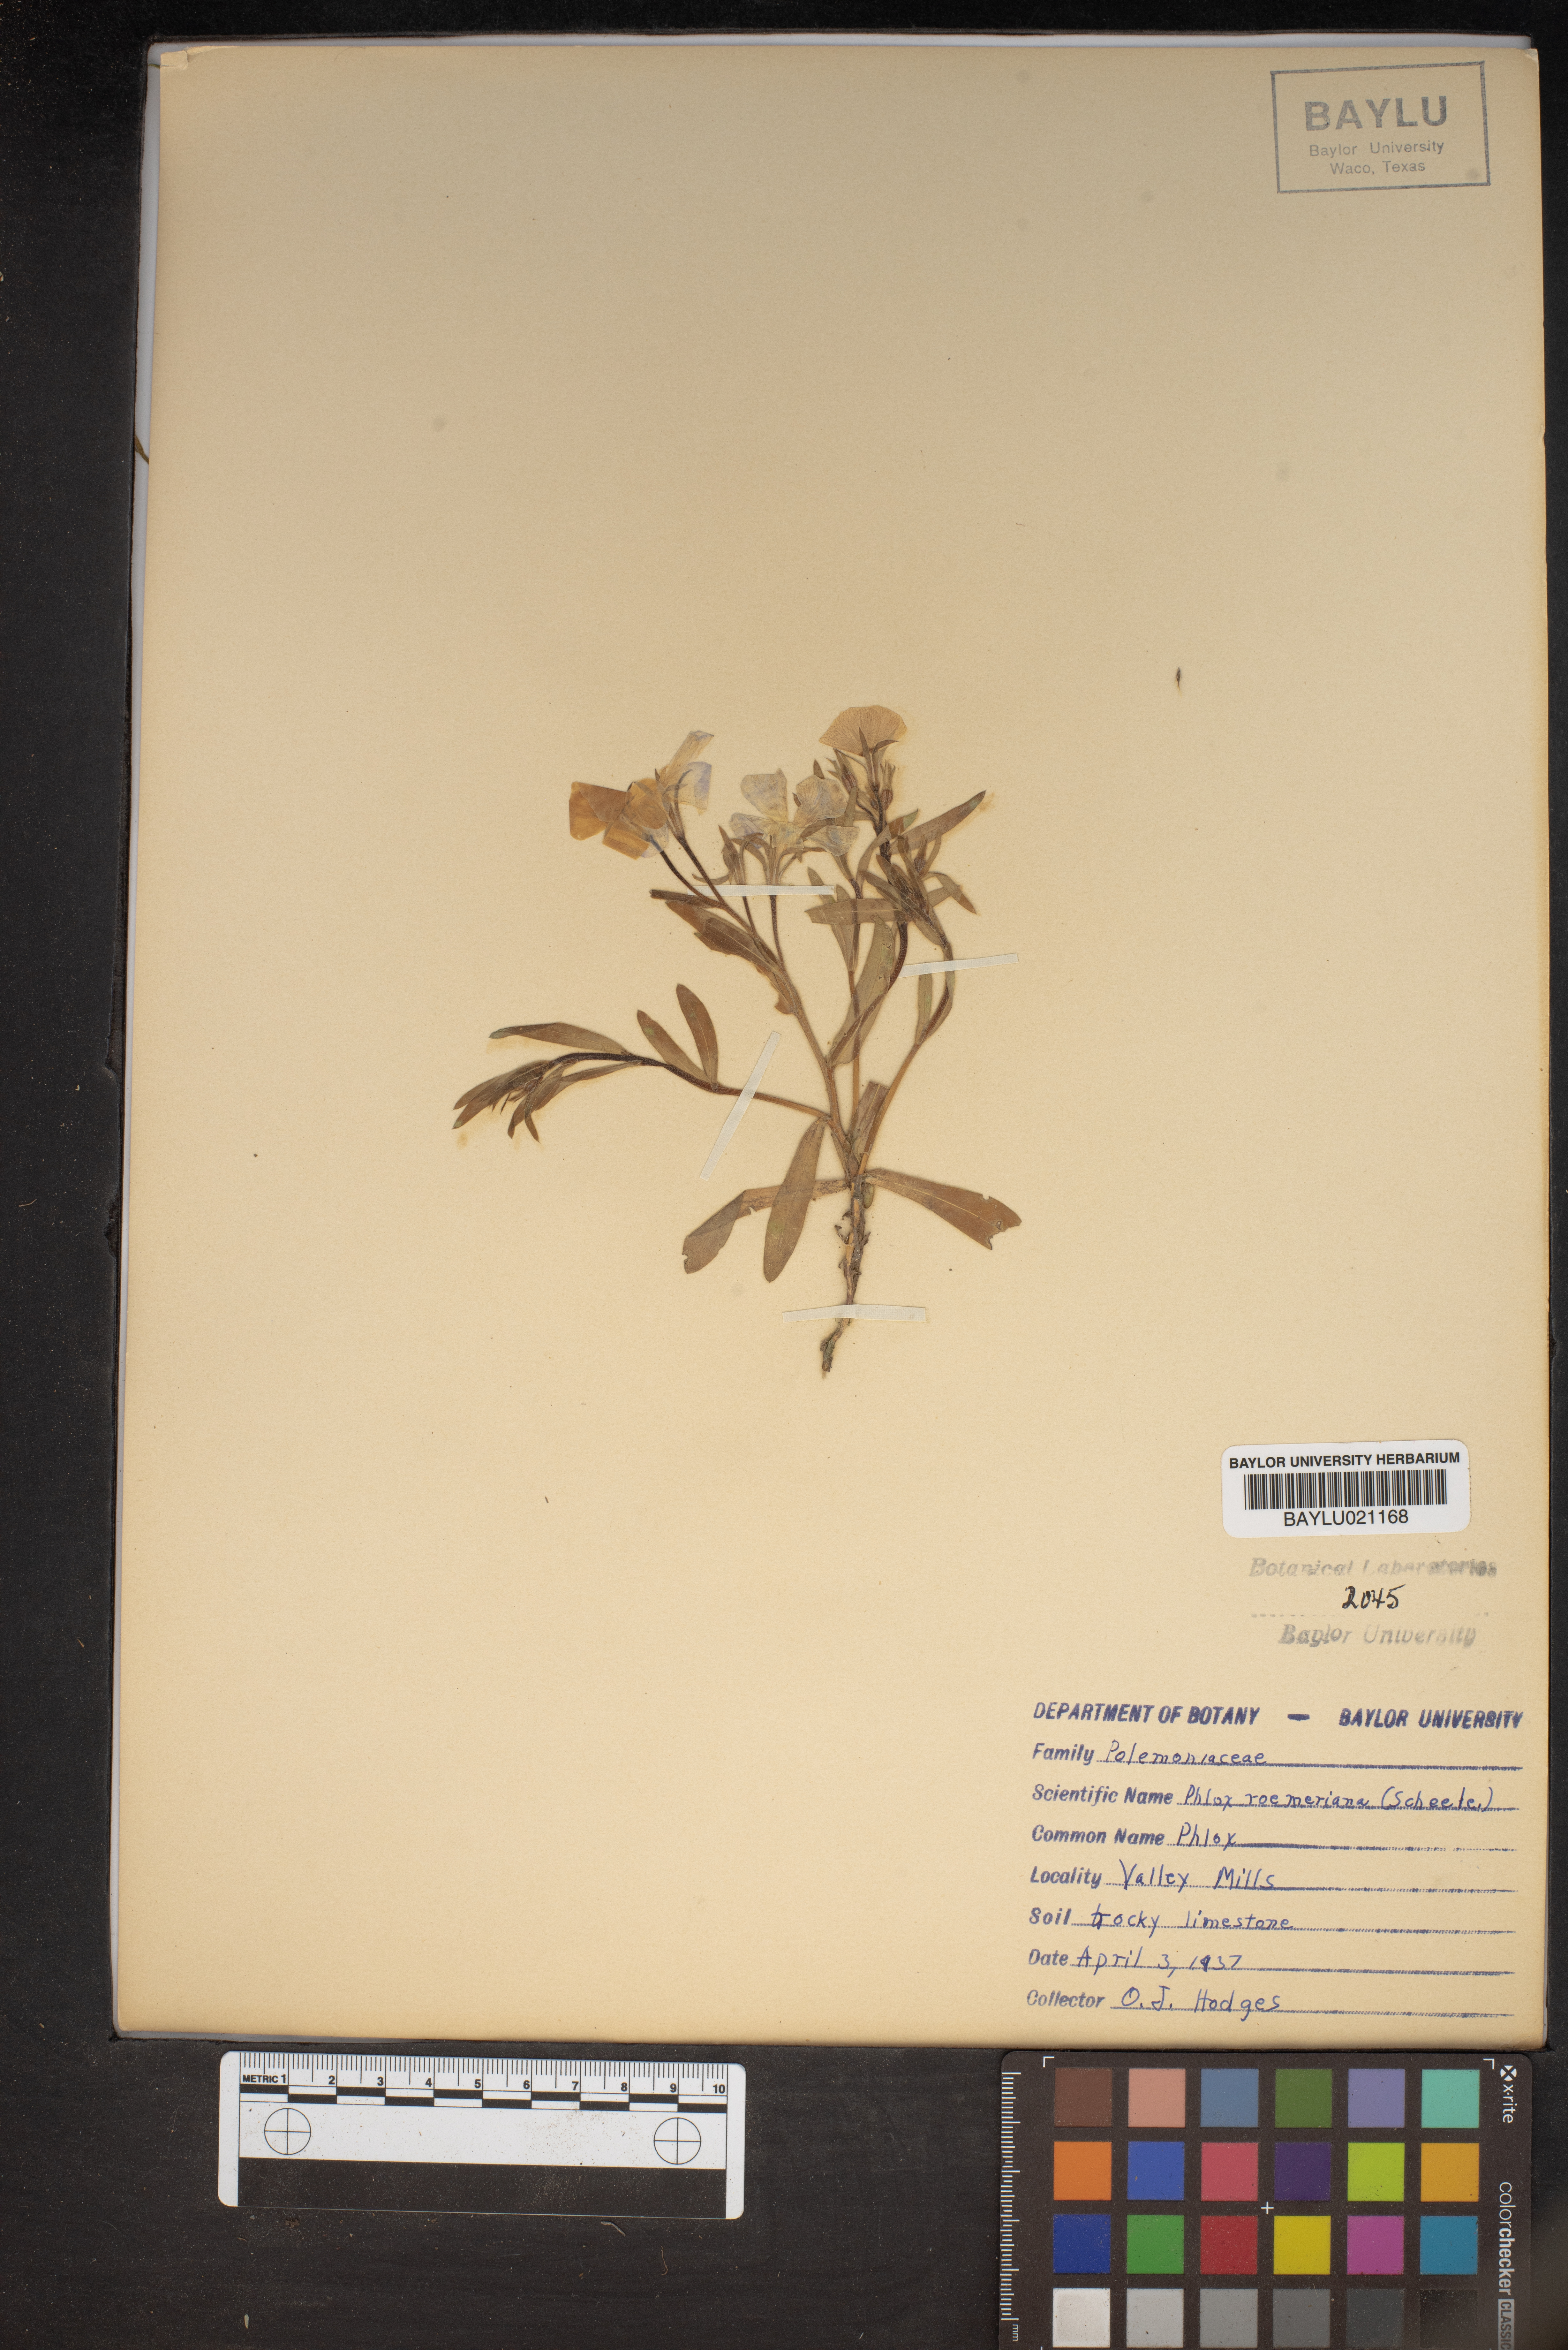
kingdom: Plantae
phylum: Tracheophyta
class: Magnoliopsida
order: Ericales
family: Polemoniaceae
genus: Phlox
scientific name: Phlox roemeriana
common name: Roemer's phlox
